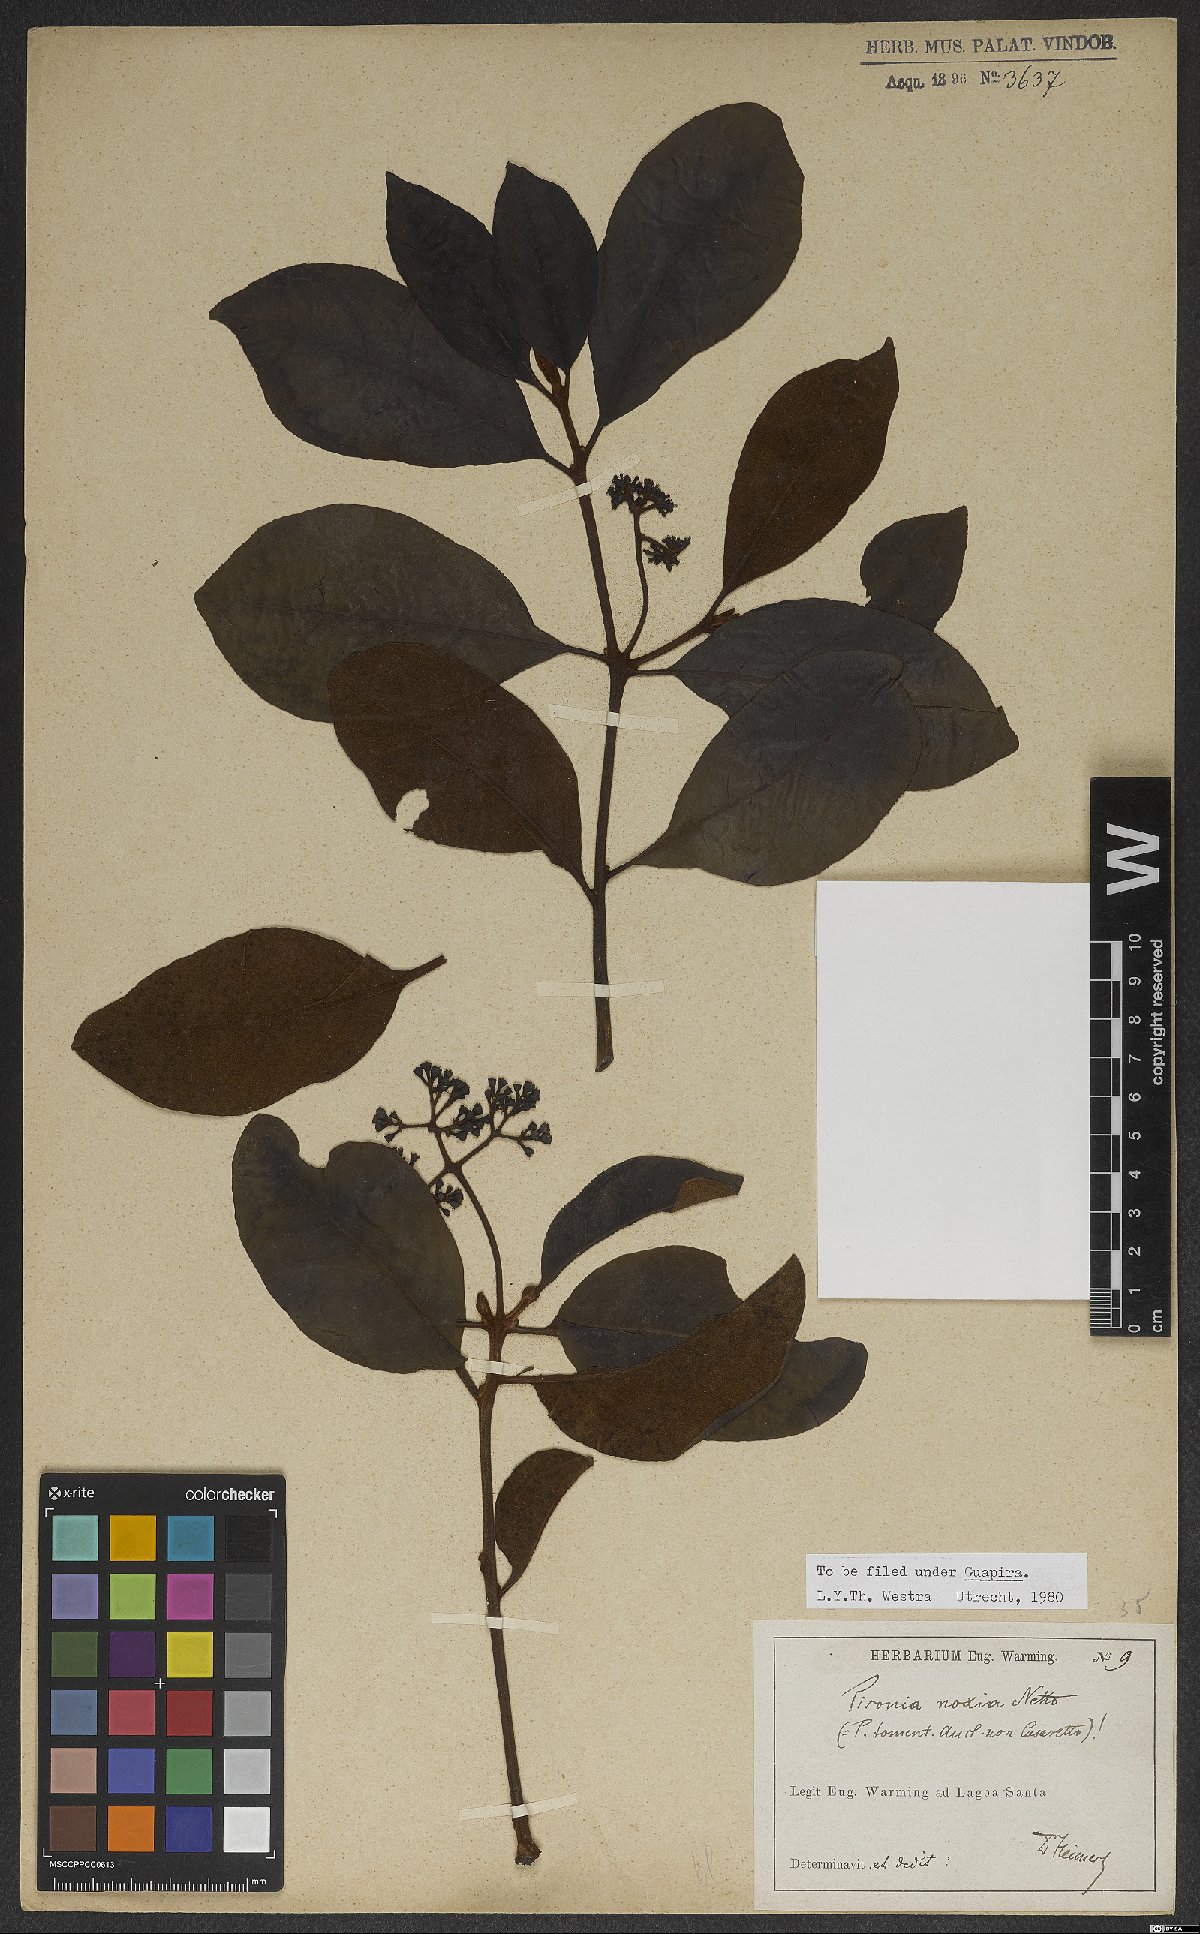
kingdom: Plantae
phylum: Tracheophyta
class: Magnoliopsida
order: Caryophyllales
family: Nyctaginaceae
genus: Guapira
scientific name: Guapira noxia
